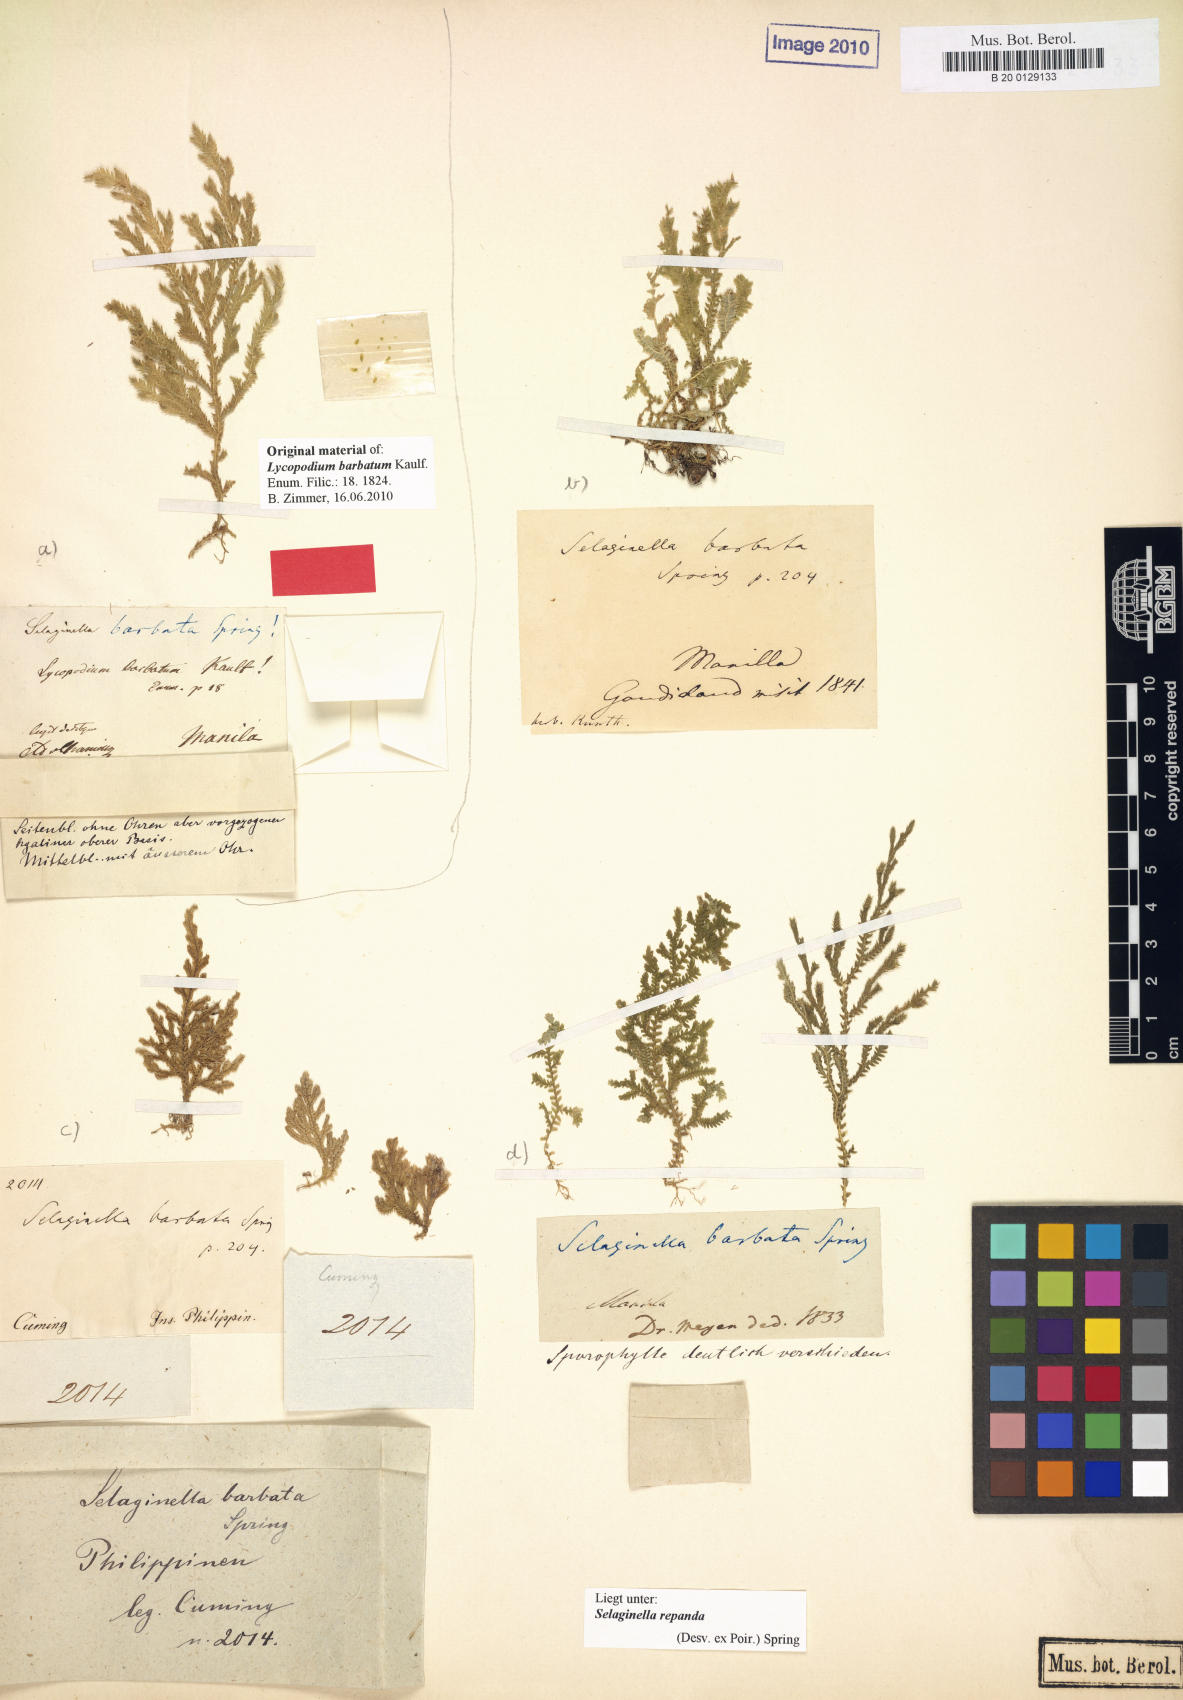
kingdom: Plantae
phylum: Tracheophyta
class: Lycopodiopsida
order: Selaginellales
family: Selaginellaceae
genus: Selaginella
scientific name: Selaginella repanda
